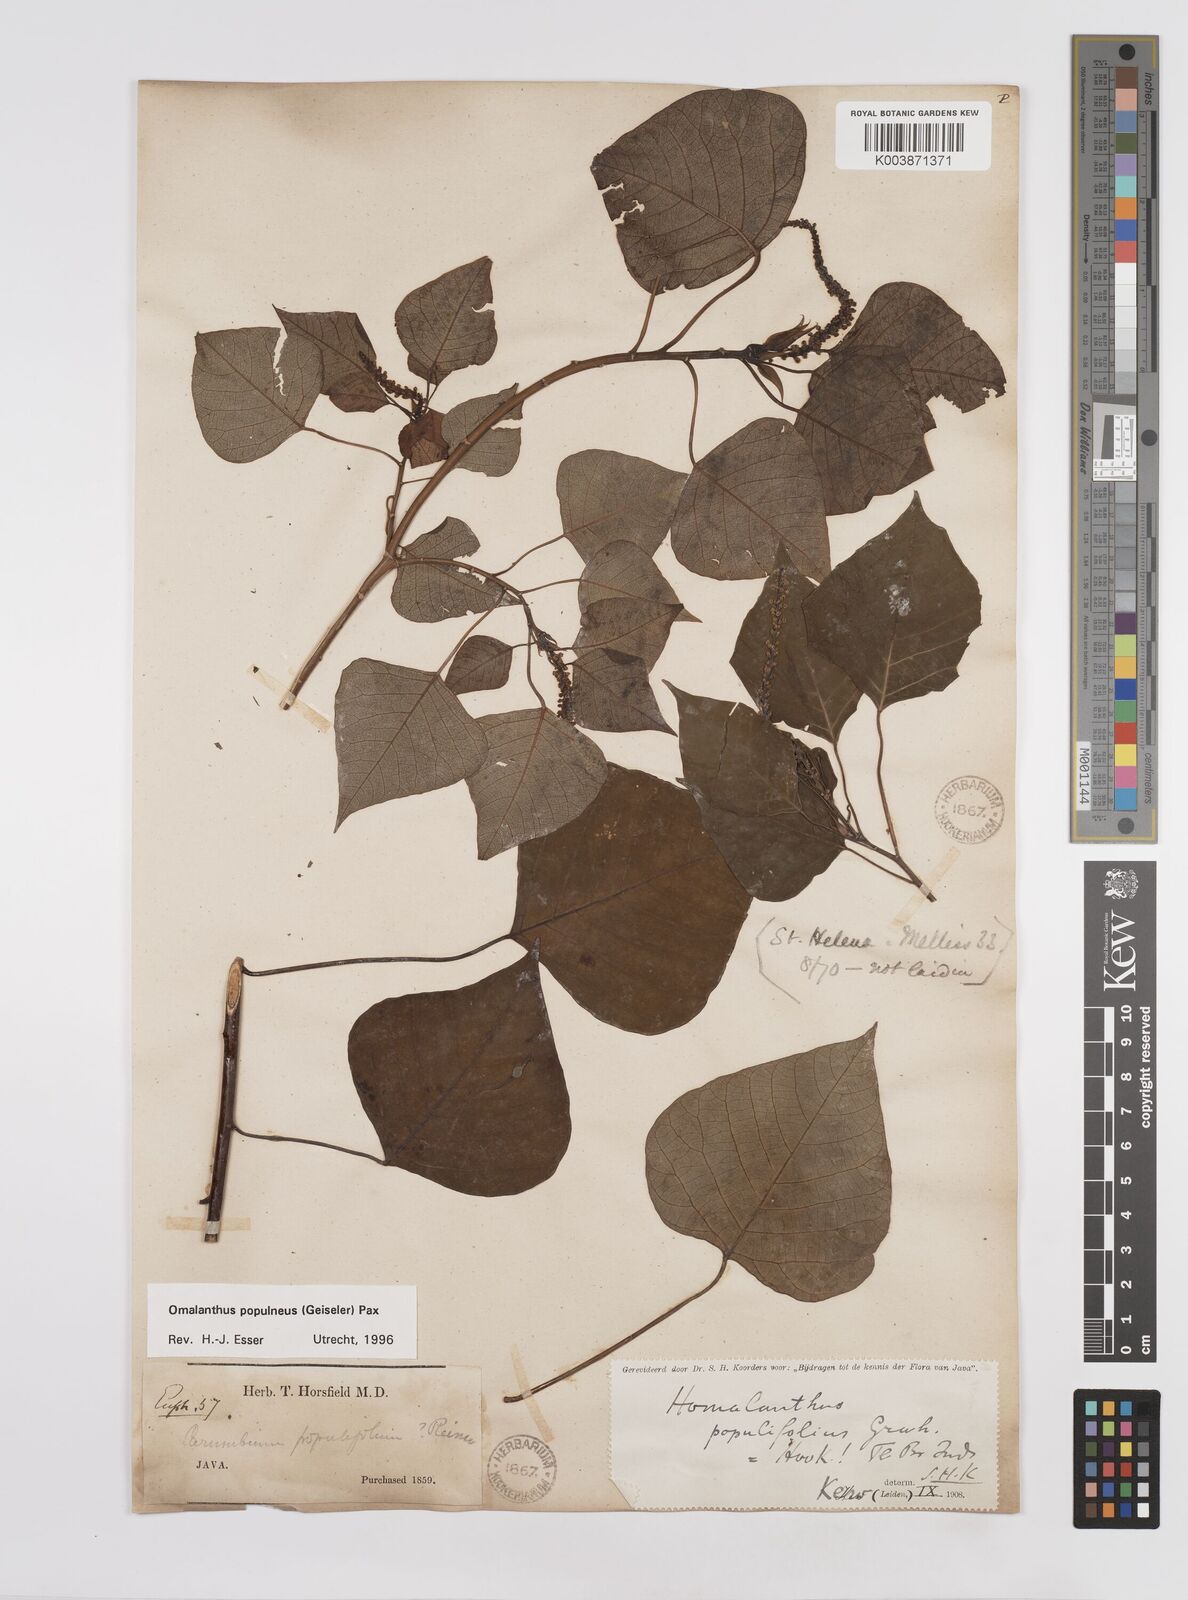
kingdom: Plantae
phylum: Tracheophyta
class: Magnoliopsida
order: Malpighiales
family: Euphorbiaceae
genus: Homalanthus
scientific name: Homalanthus populneus
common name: Spurge
